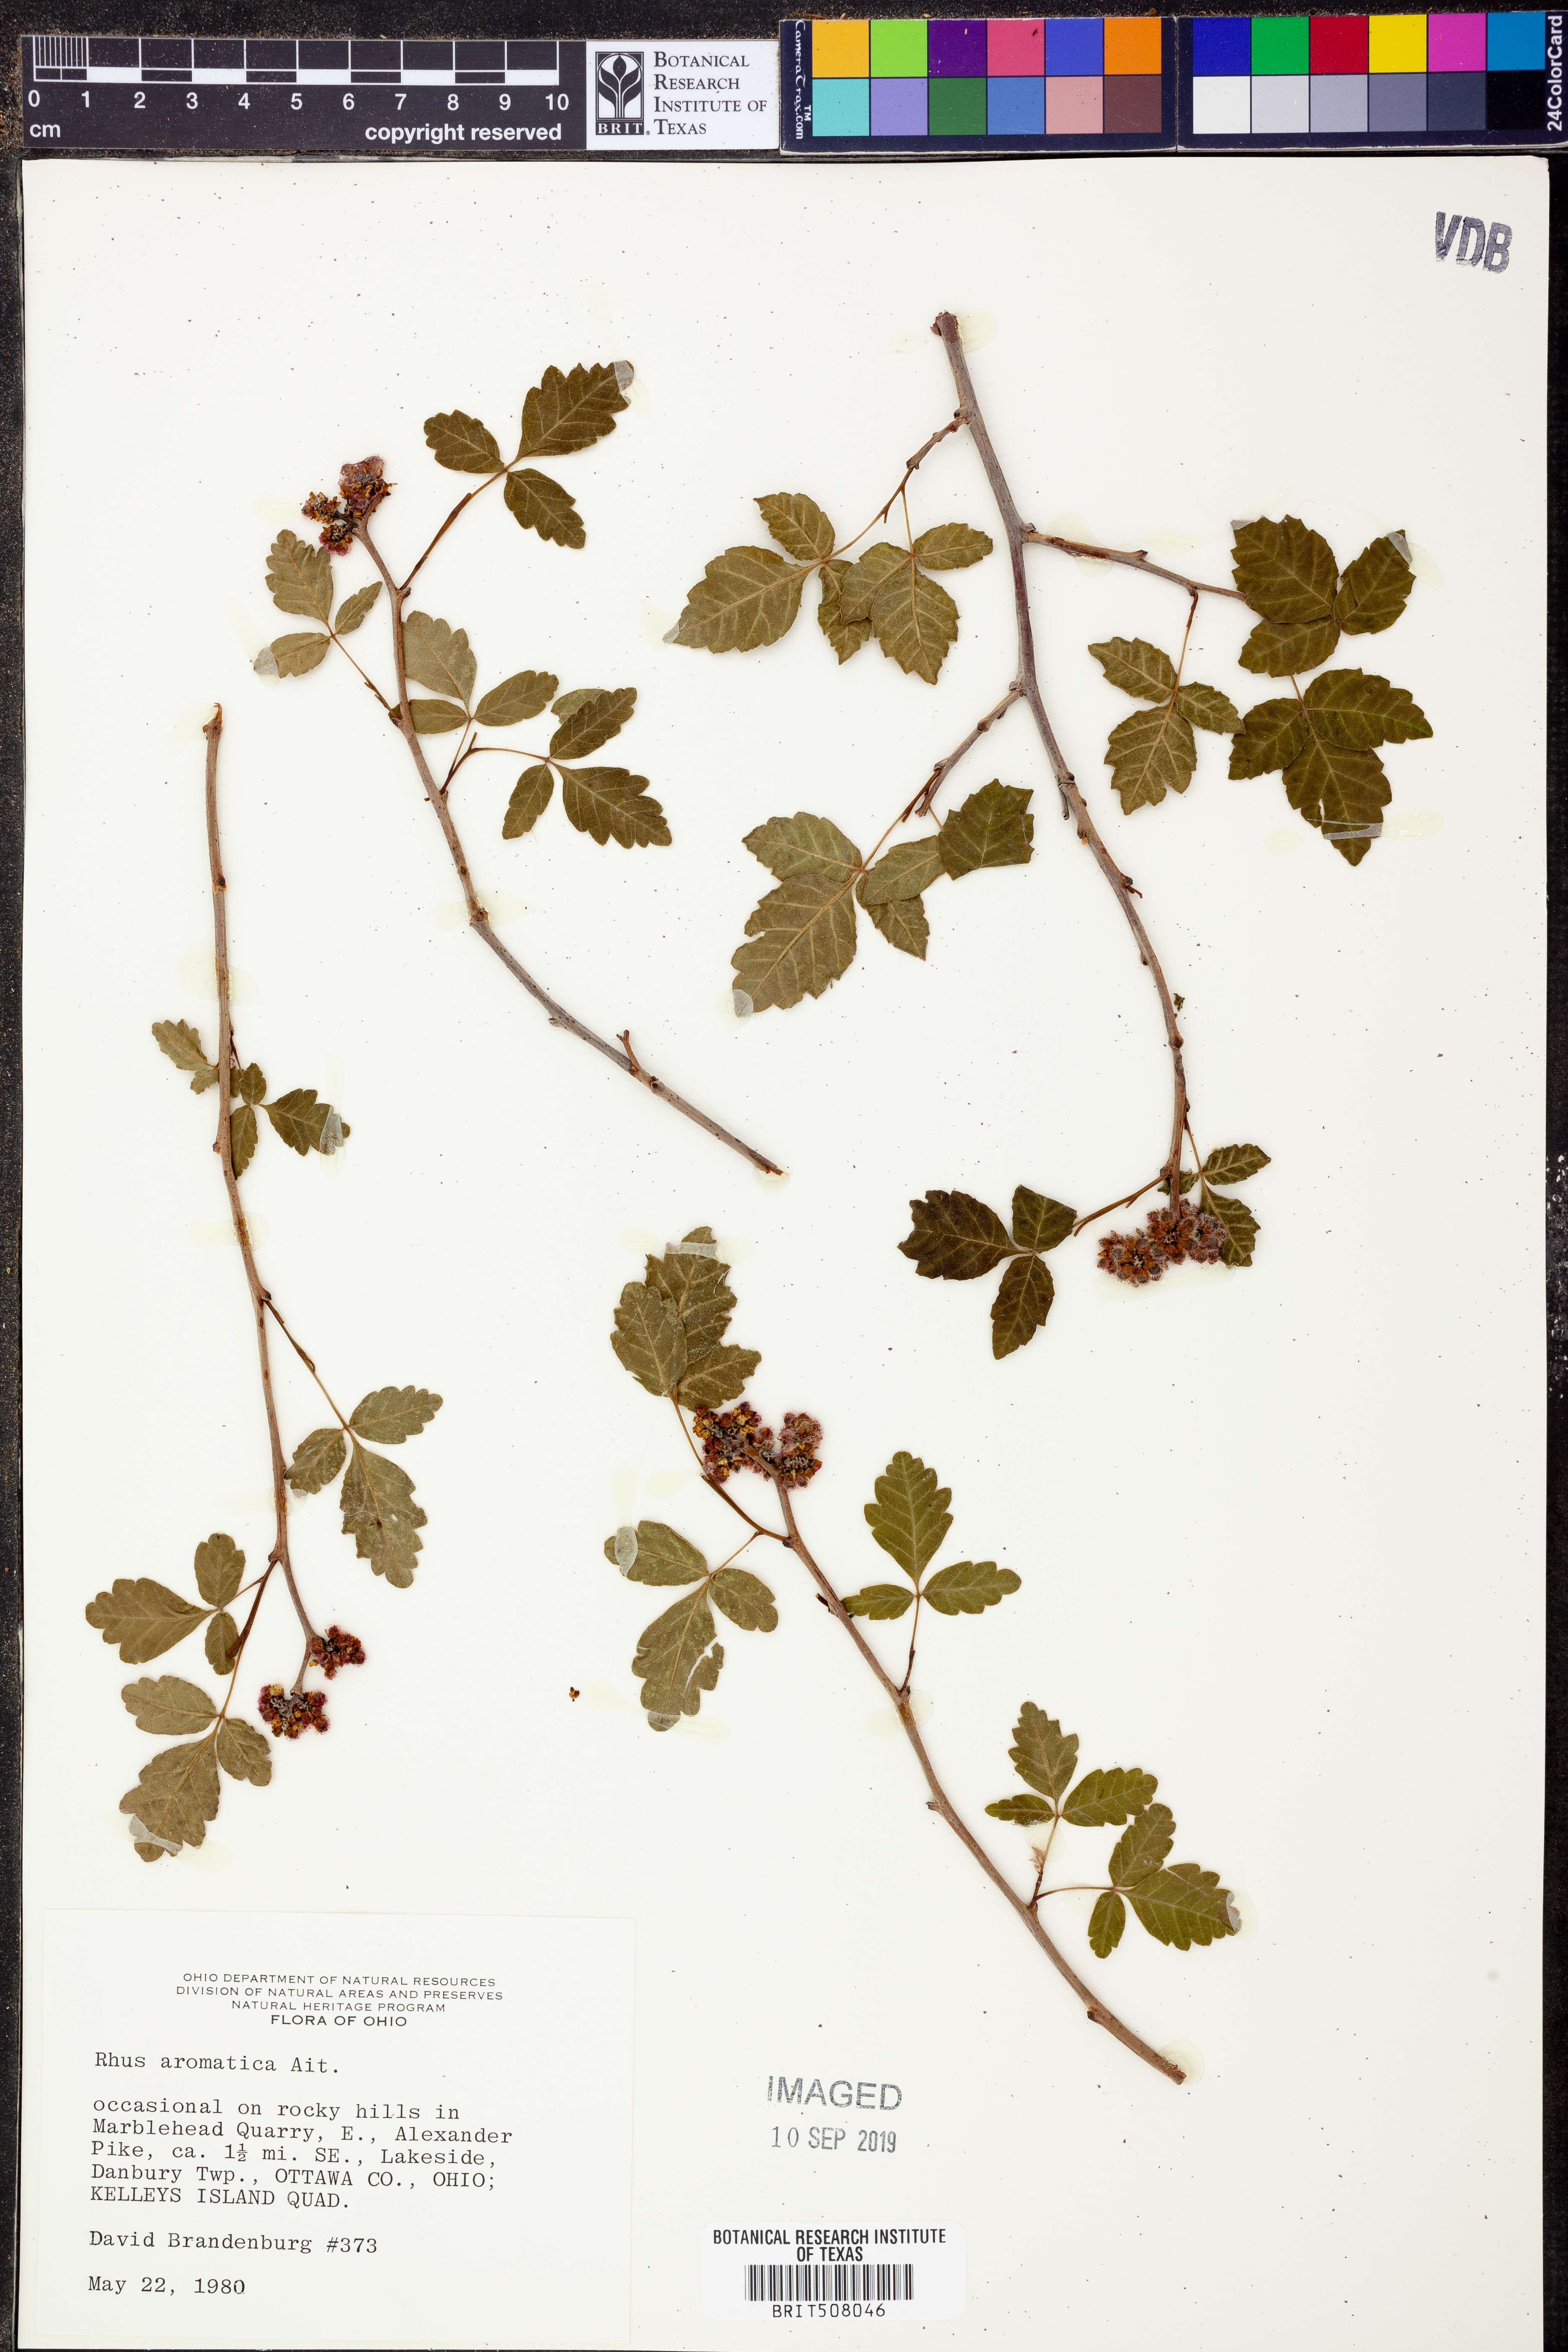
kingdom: Plantae
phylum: Tracheophyta
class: Magnoliopsida
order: Sapindales
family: Anacardiaceae
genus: Rhus
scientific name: Rhus aromatica
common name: Aromatic sumac
